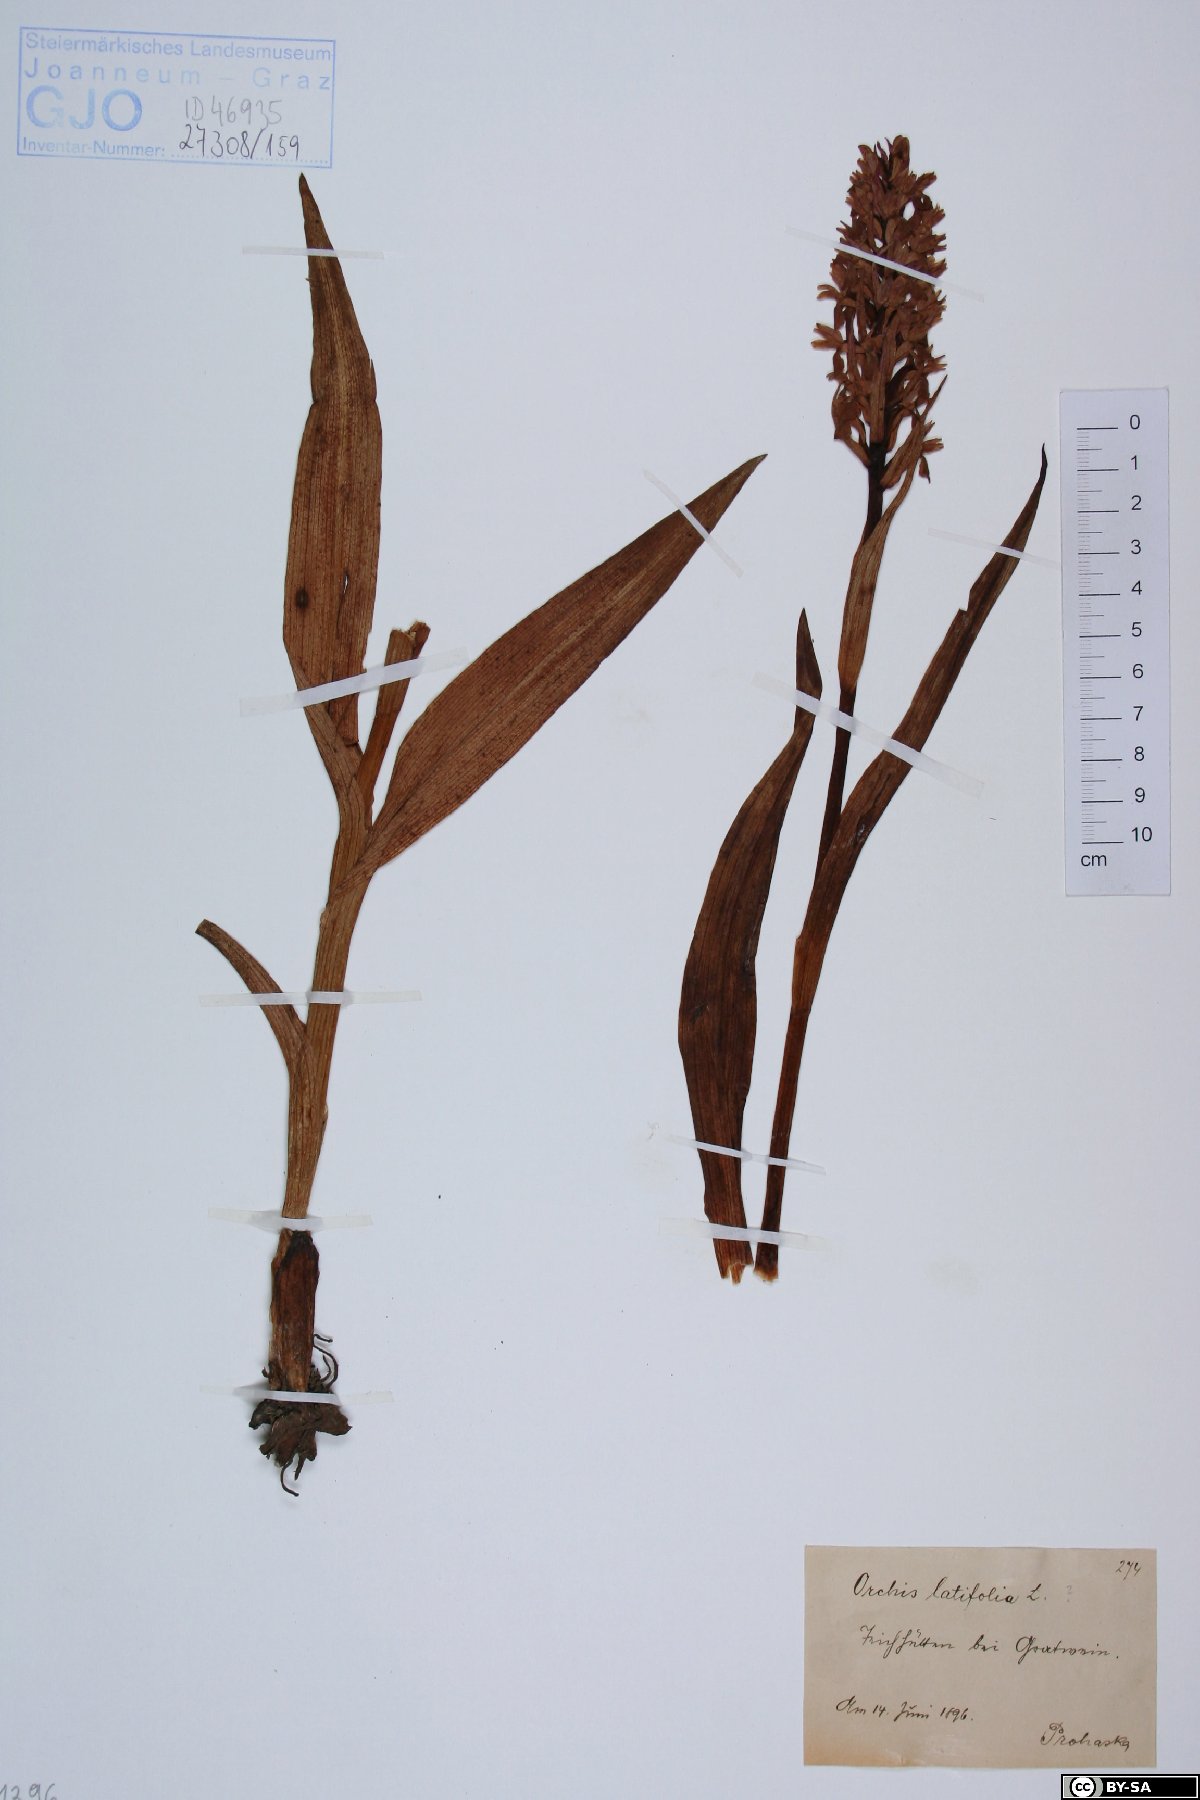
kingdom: Plantae
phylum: Tracheophyta
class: Liliopsida
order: Asparagales
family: Orchidaceae
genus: Dactylorhiza
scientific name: Dactylorhiza incarnata
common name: Early marsh-orchid
